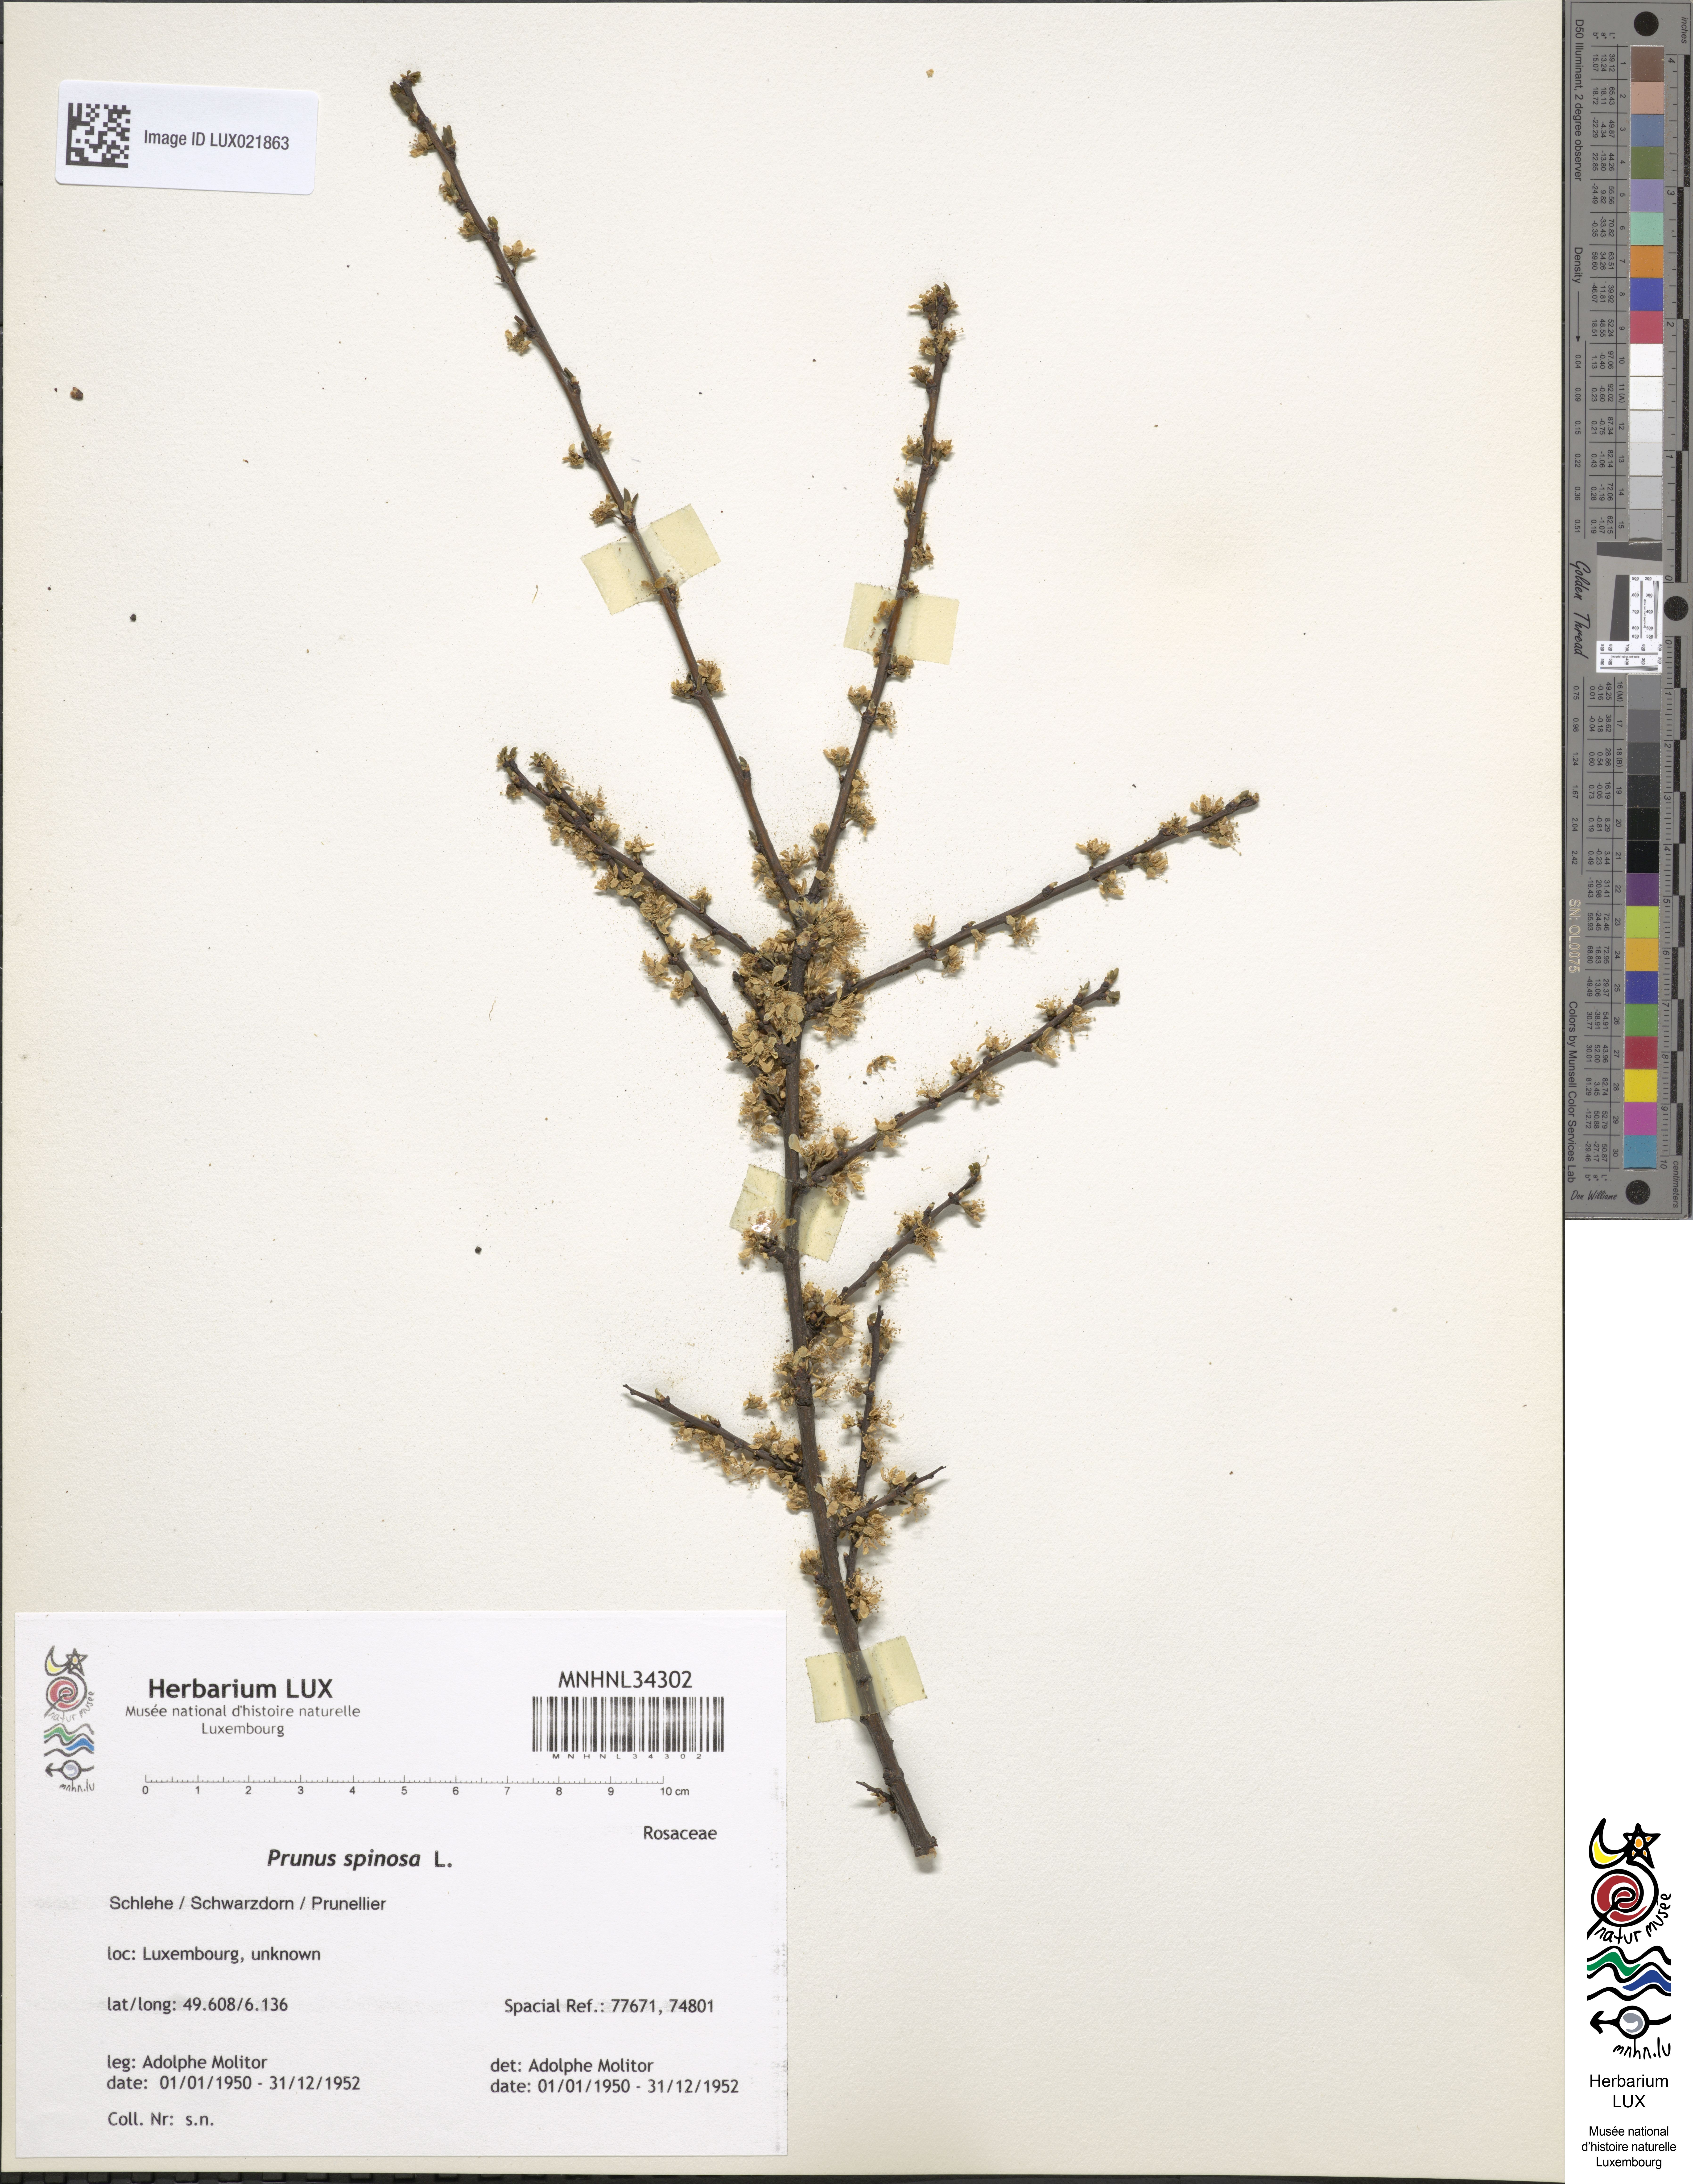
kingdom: Plantae
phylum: Tracheophyta
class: Magnoliopsida
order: Rosales
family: Rosaceae
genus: Prunus
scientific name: Prunus spinosa
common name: Blackthorn
